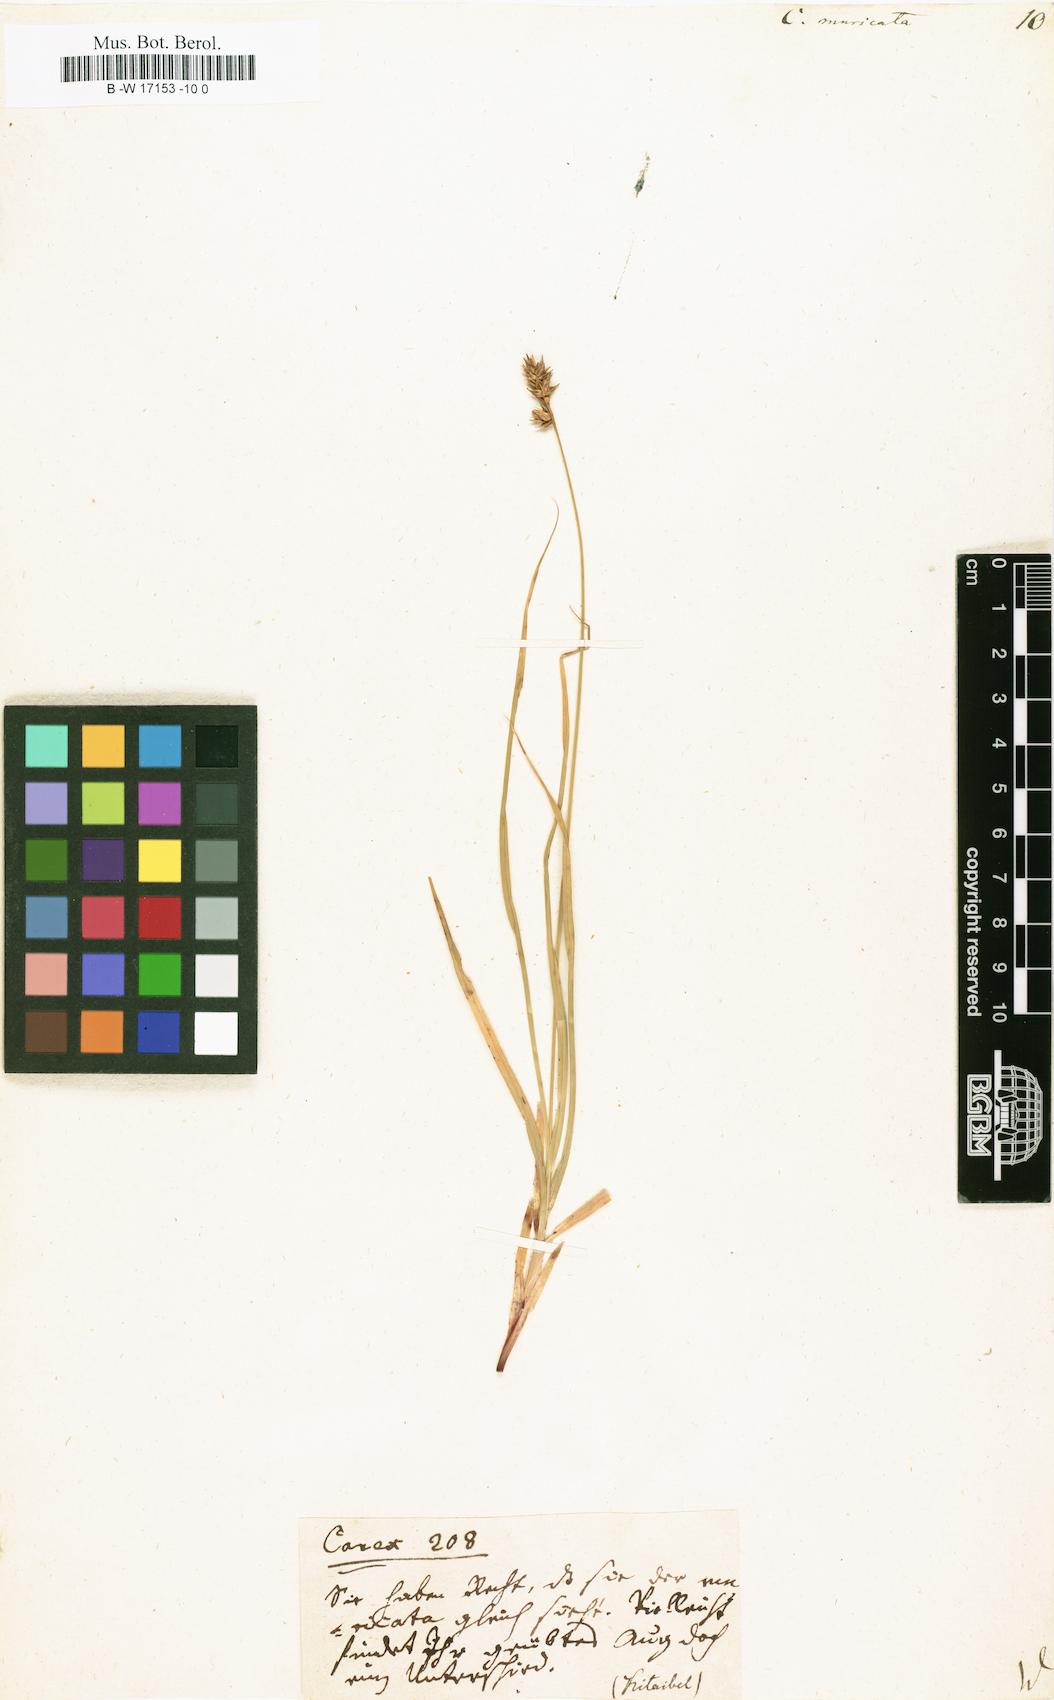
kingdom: Plantae
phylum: Tracheophyta
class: Liliopsida
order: Poales
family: Cyperaceae
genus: Carex
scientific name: Carex muricata
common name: Rough sedge
